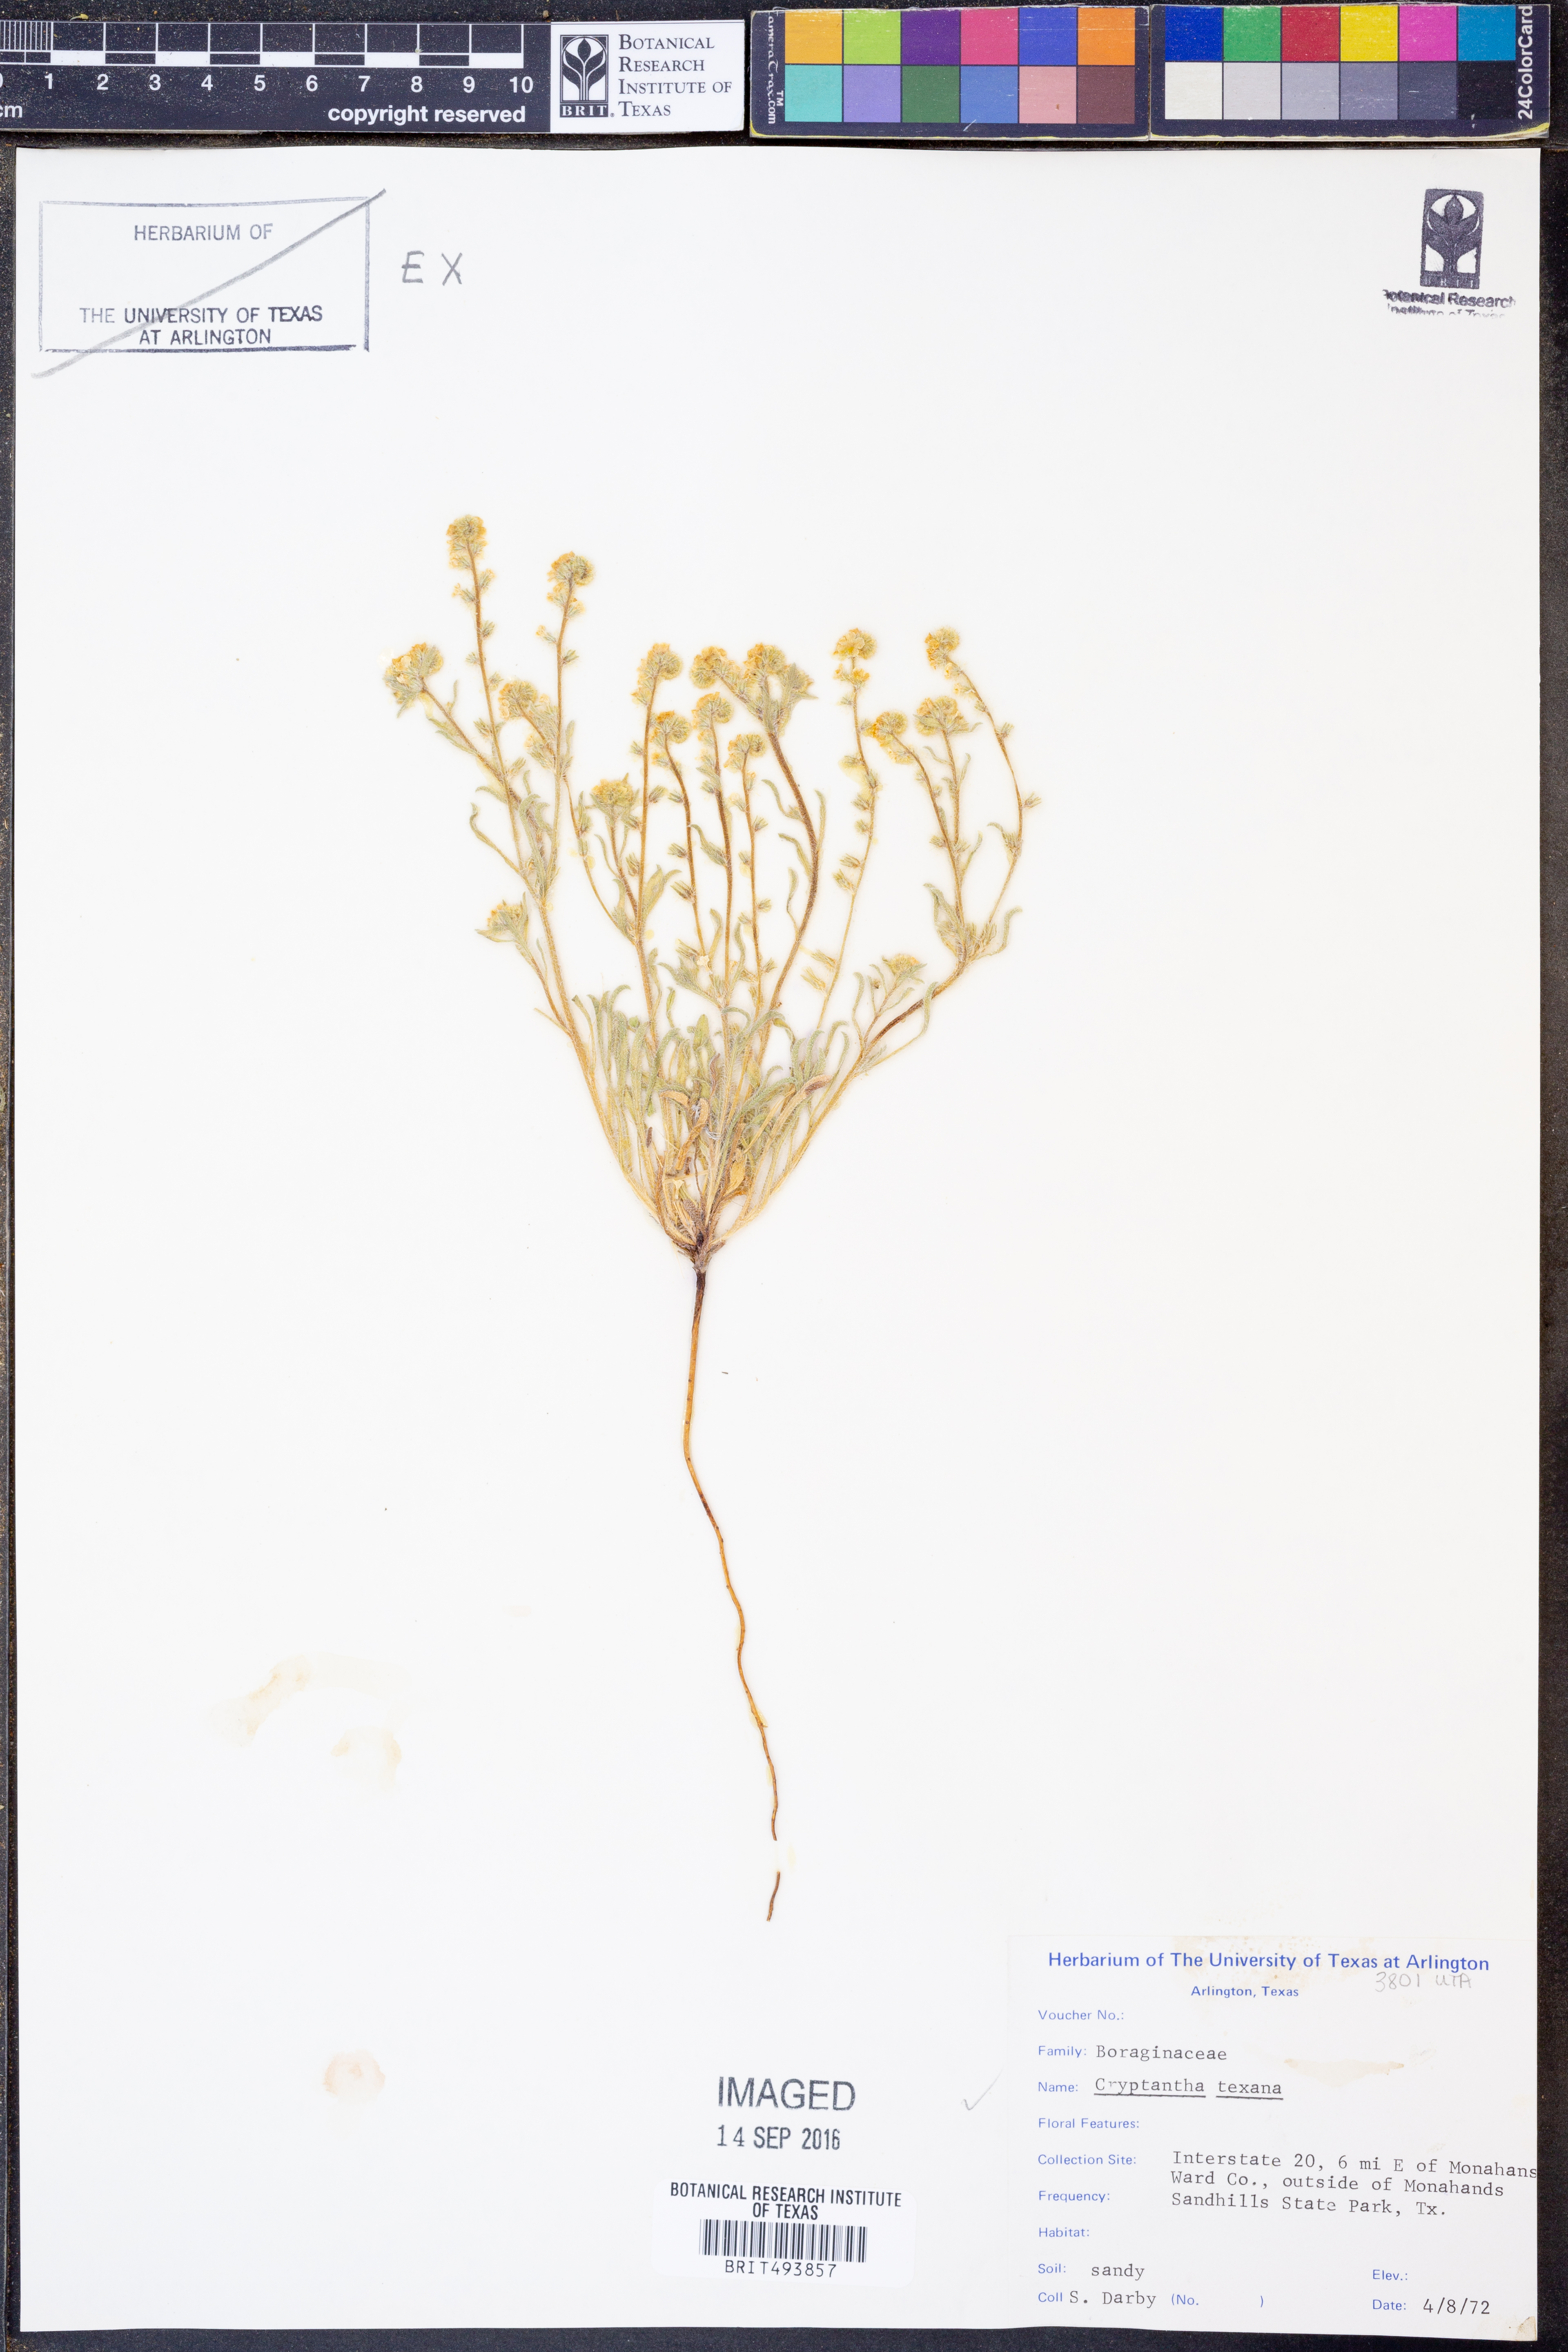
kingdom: Plantae
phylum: Tracheophyta
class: Magnoliopsida
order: Boraginales
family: Boraginaceae
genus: Cryptantha
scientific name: Cryptantha texana
